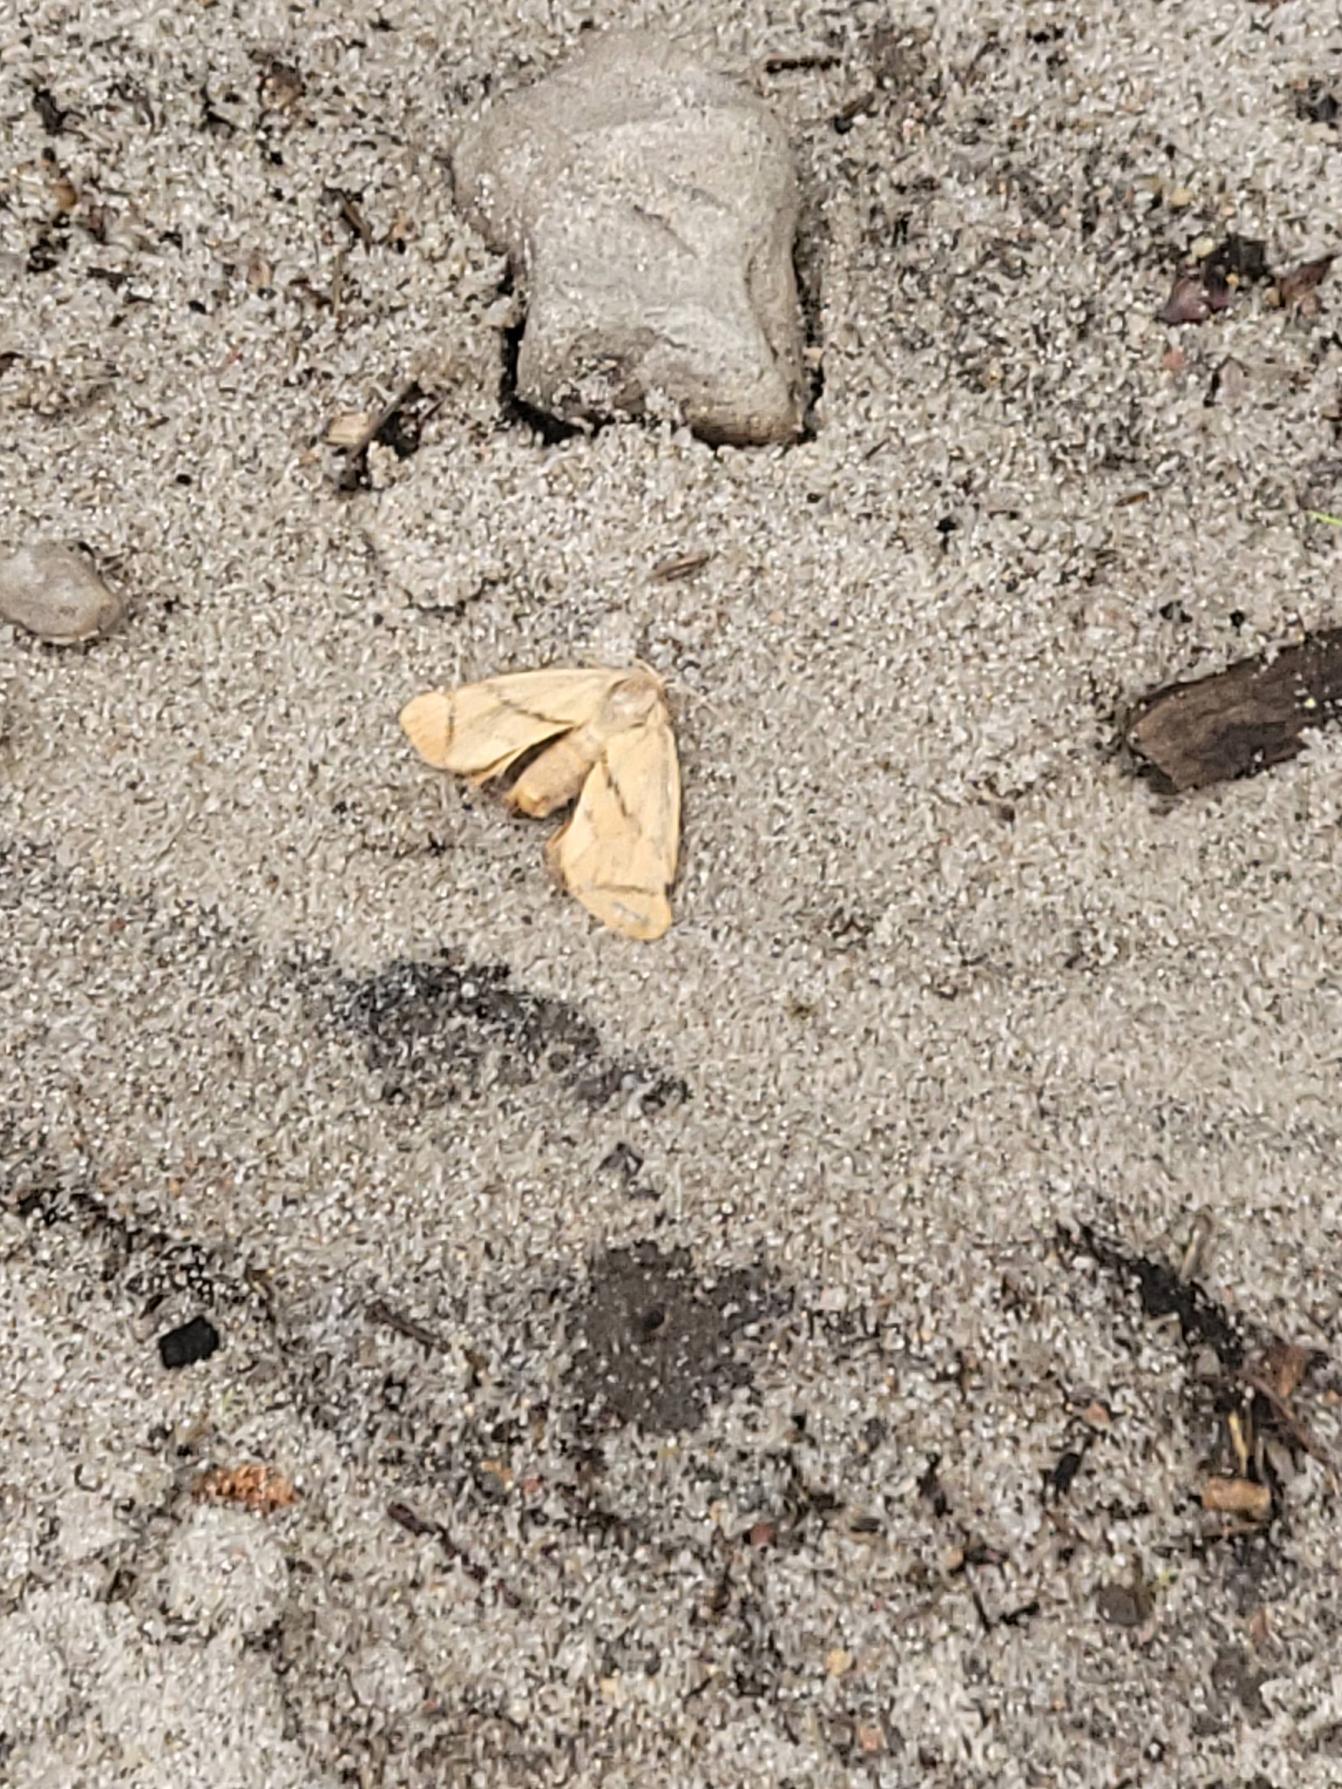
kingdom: Animalia
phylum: Arthropoda
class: Insecta
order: Lepidoptera
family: Limacodidae
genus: Apoda
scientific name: Apoda limacodes
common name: Stor sneglespinder
